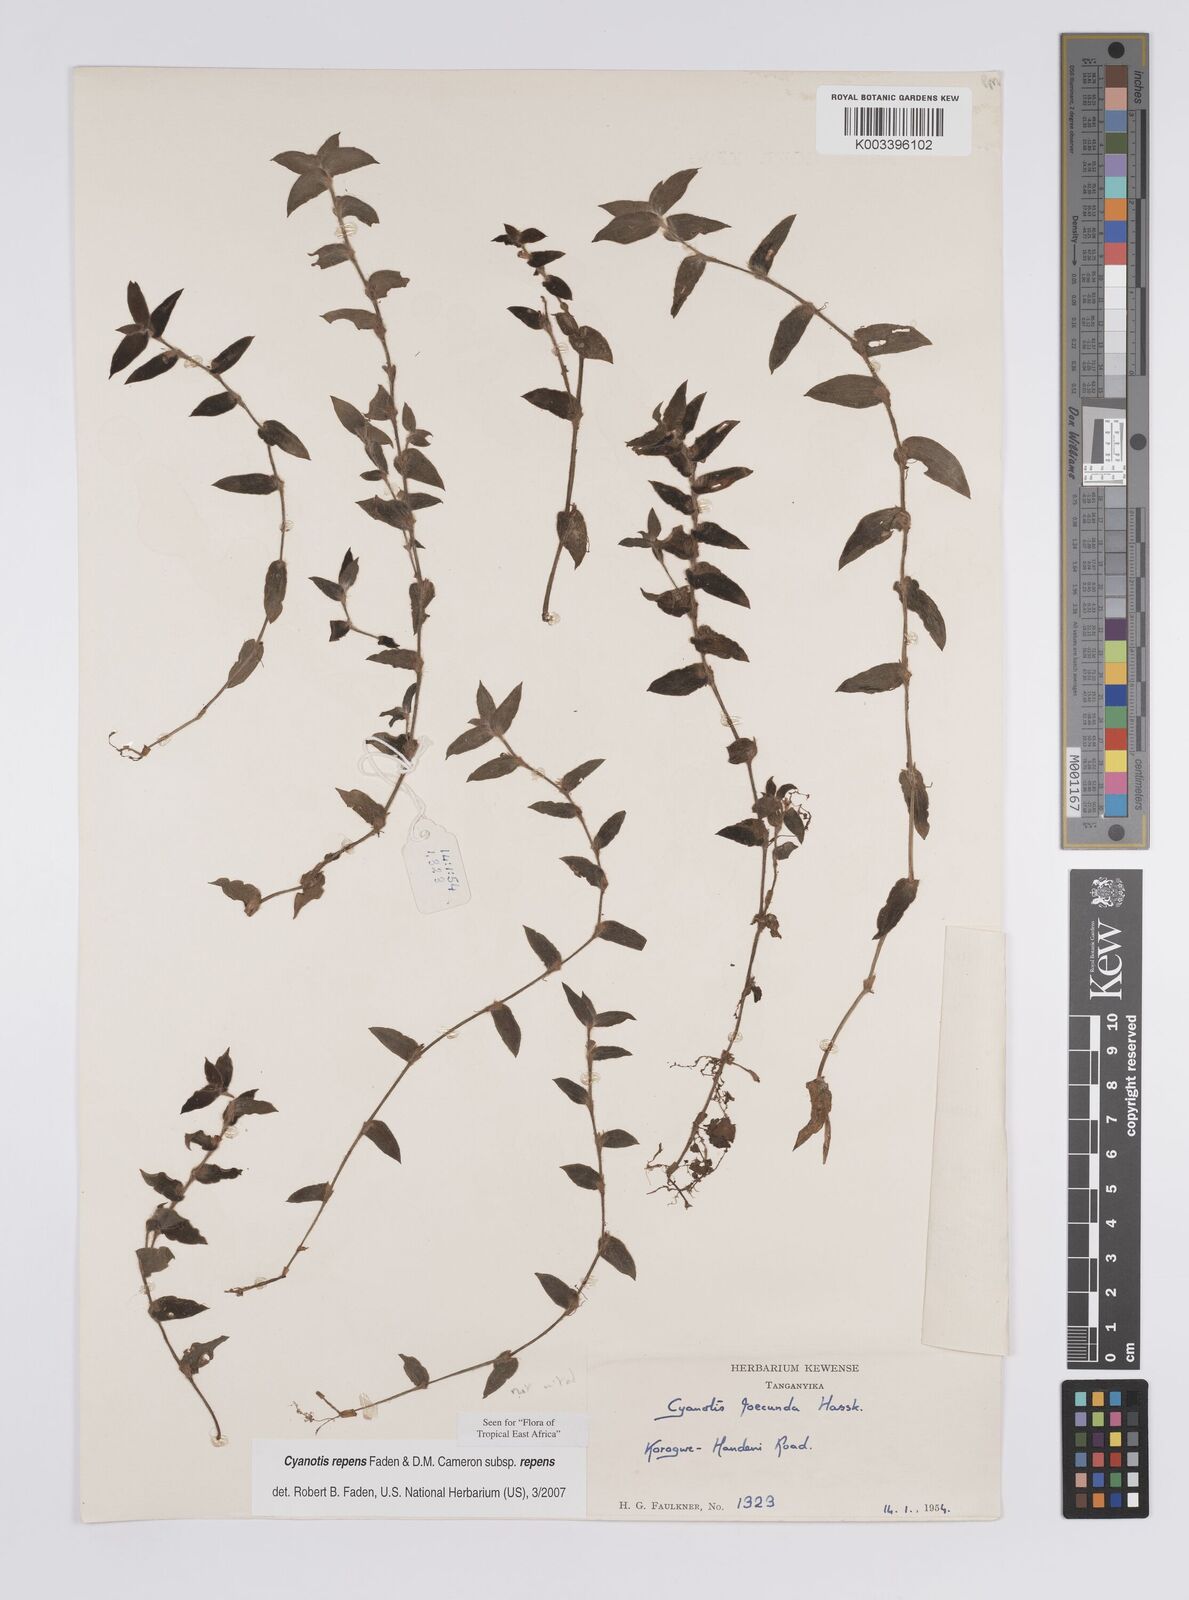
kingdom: Plantae
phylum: Tracheophyta
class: Liliopsida
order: Commelinales
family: Commelinaceae
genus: Cyanotis
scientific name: Cyanotis repens
